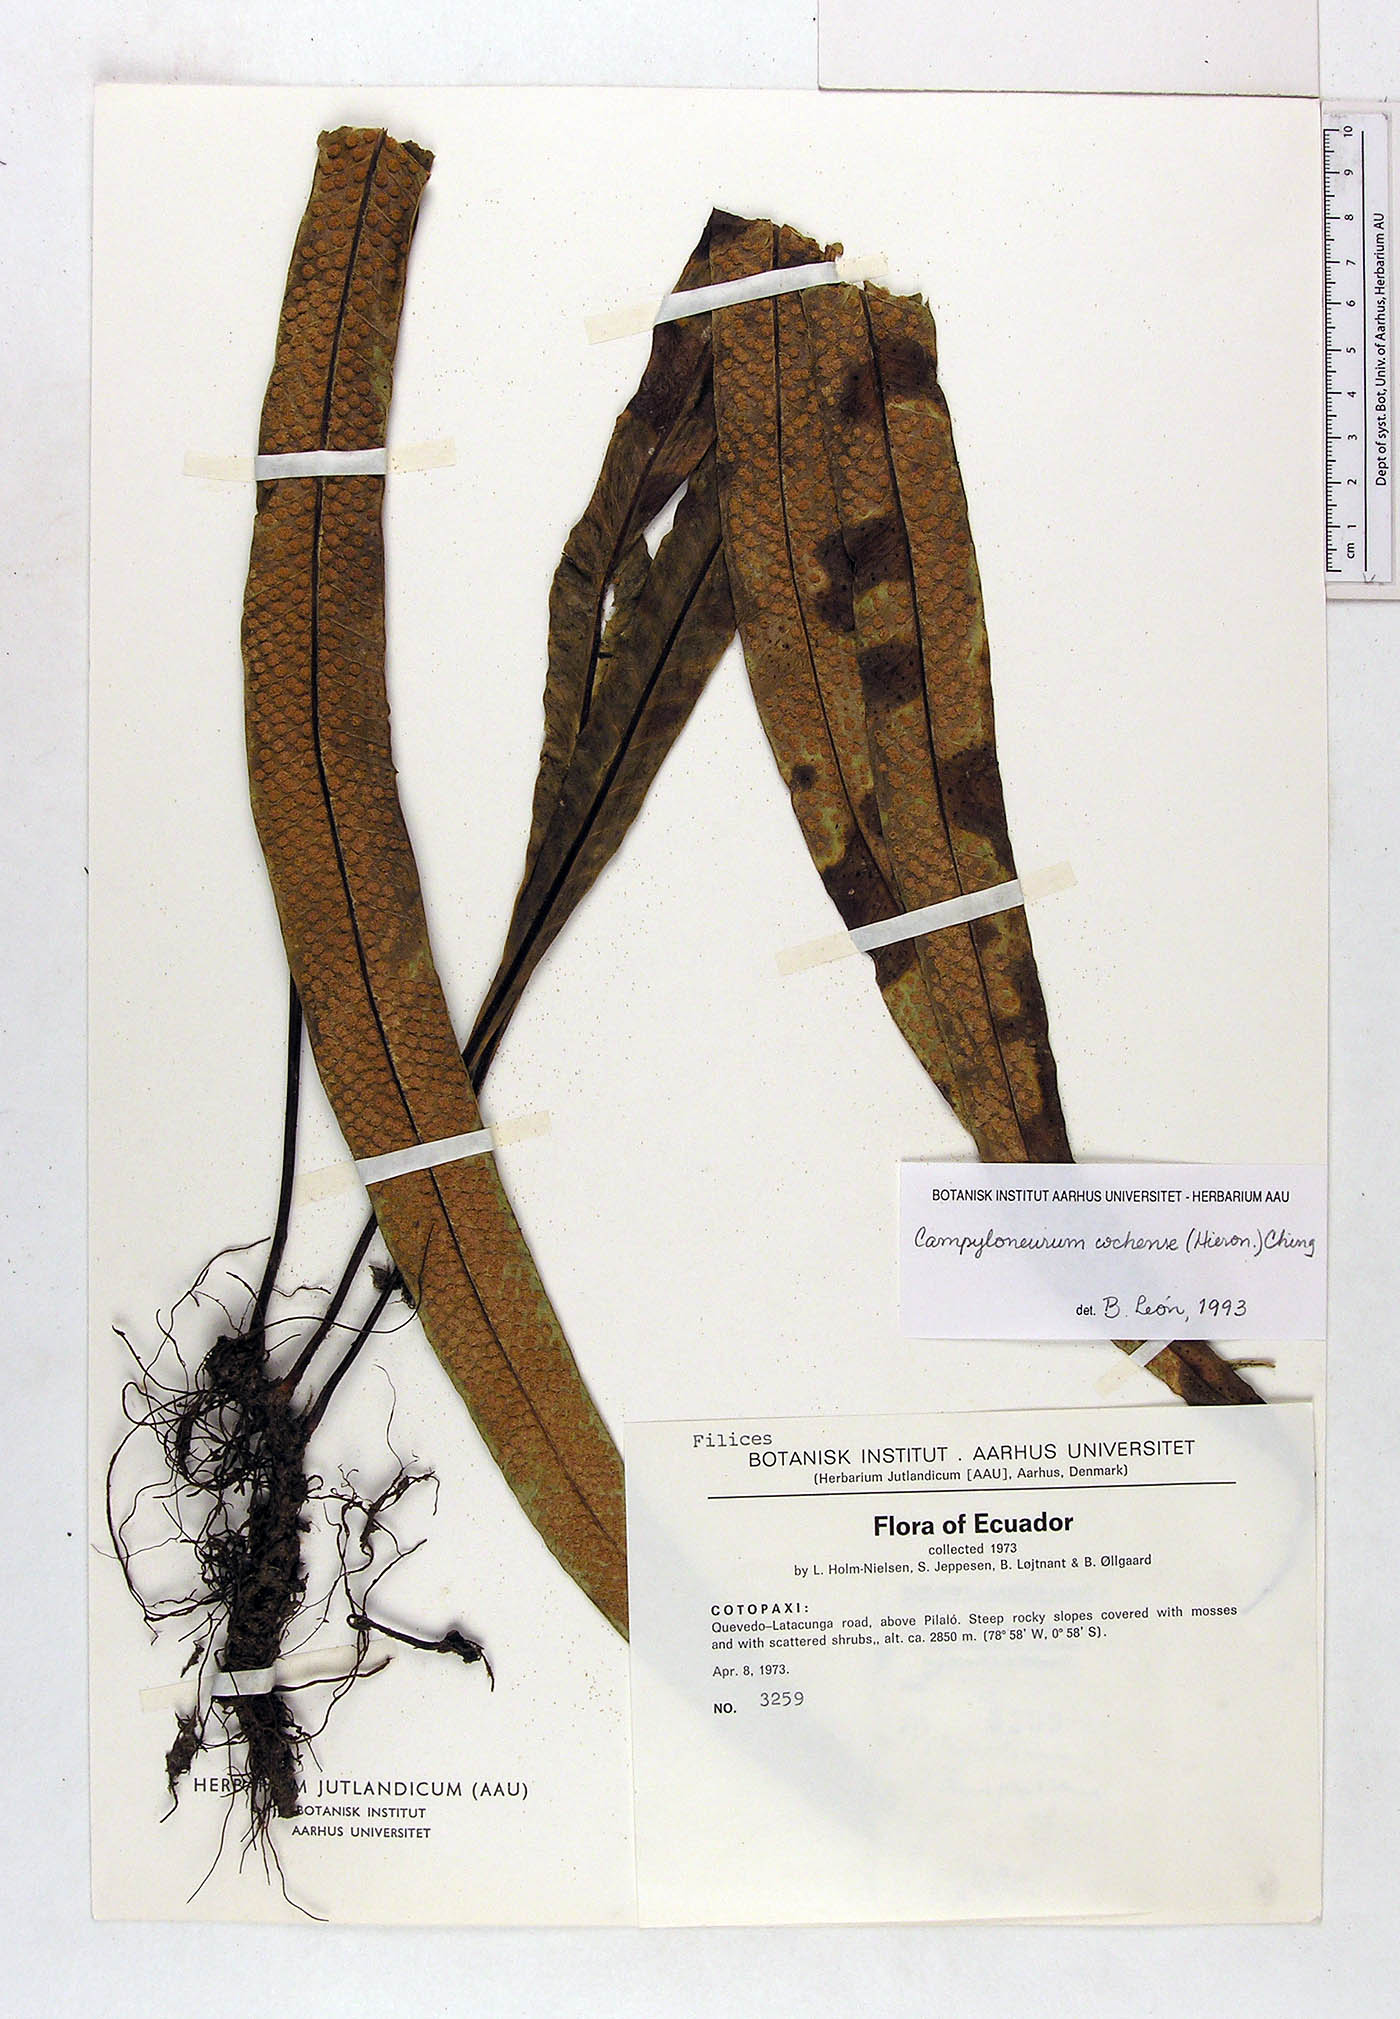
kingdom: Plantae
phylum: Tracheophyta
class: Polypodiopsida
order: Polypodiales
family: Polypodiaceae
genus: Campyloneurum
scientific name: Campyloneurum cochense
